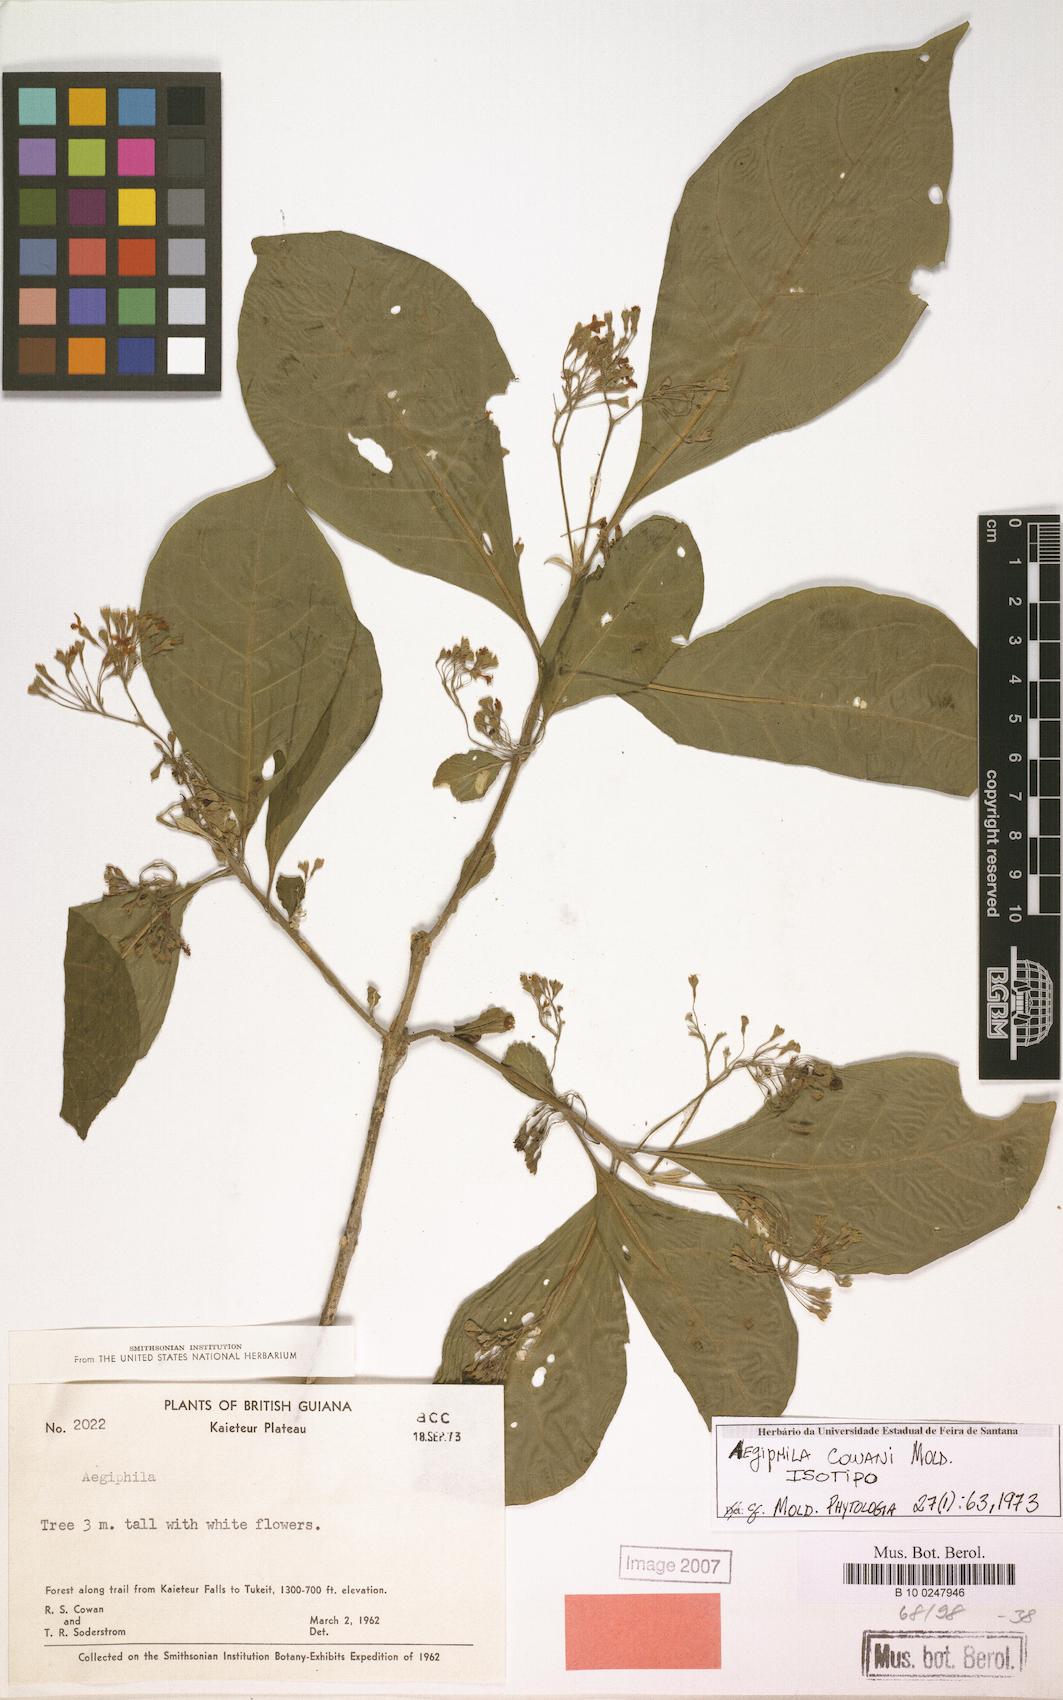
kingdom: Plantae
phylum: Tracheophyta
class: Magnoliopsida
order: Lamiales
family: Lamiaceae
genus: Aegiphila
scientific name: Aegiphila integrifolia
